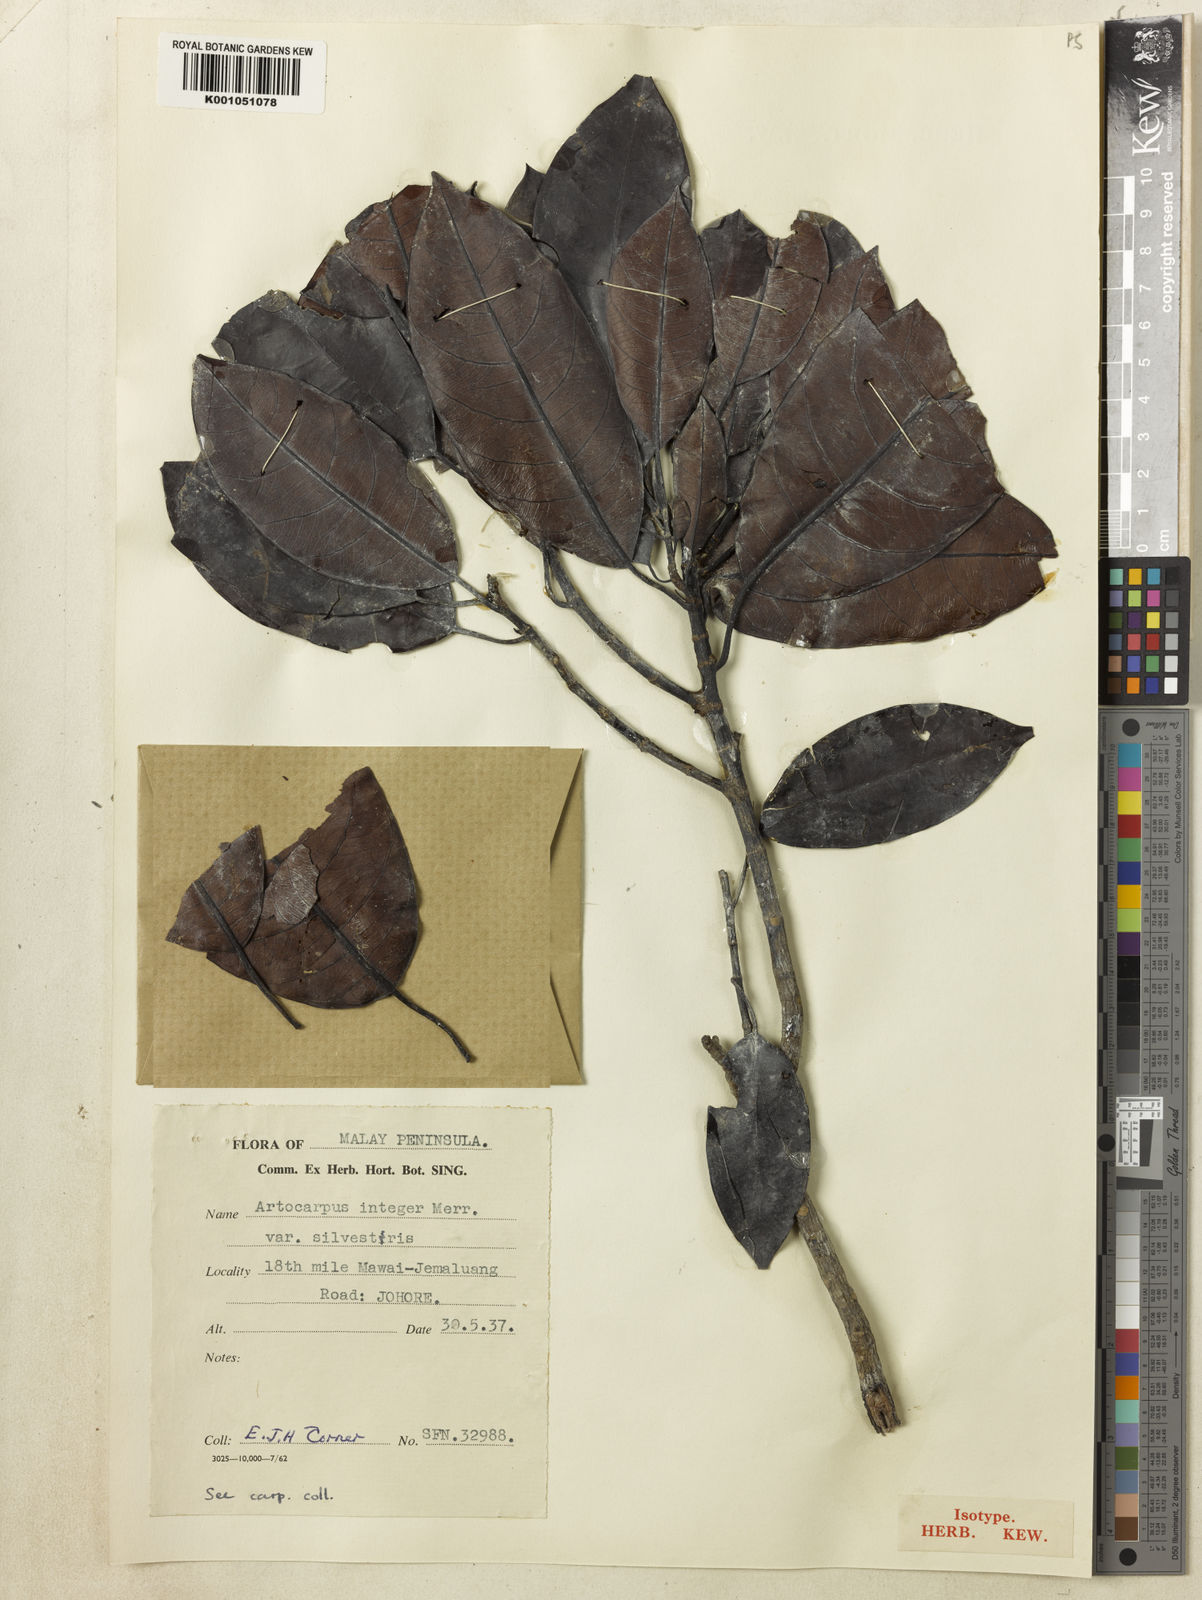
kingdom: Plantae
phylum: Tracheophyta
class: Magnoliopsida
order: Rosales
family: Moraceae
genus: Artocarpus
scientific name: Artocarpus integer
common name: Chempedak
